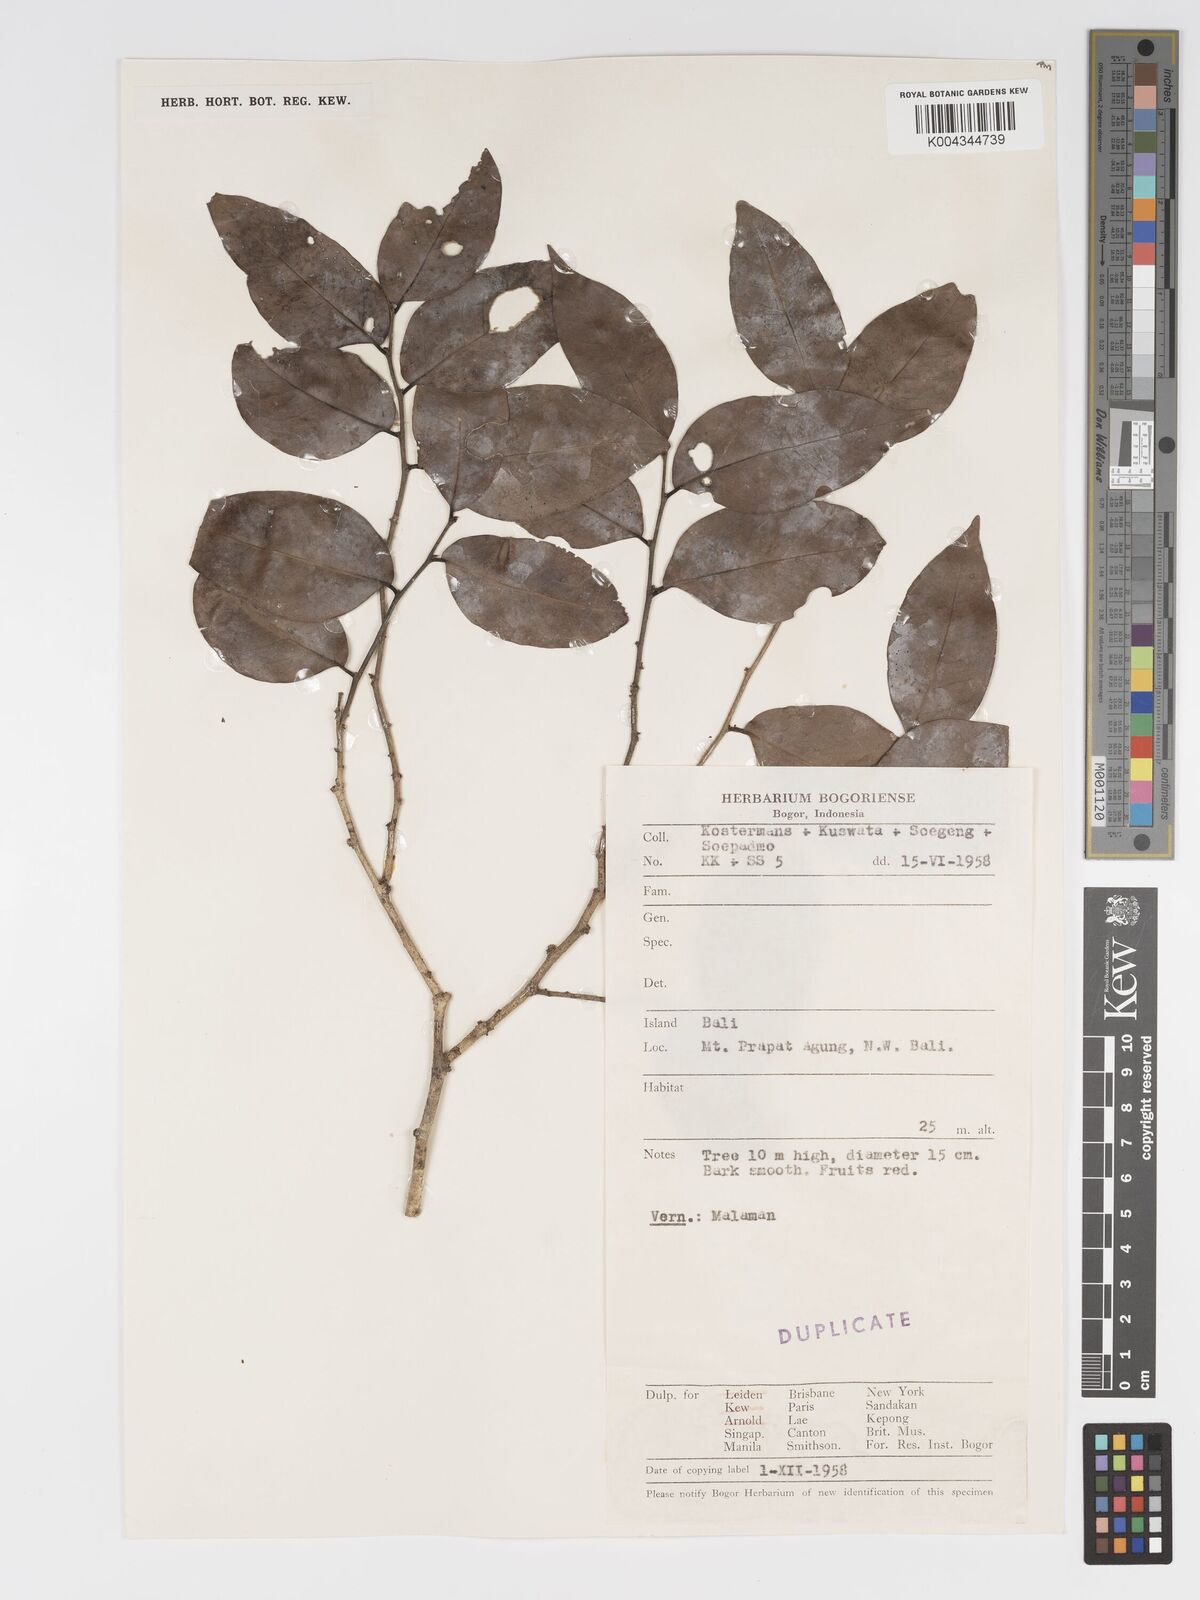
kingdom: Plantae
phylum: Tracheophyta
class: Magnoliopsida
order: Malpighiales
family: Putranjivaceae
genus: Drypetes
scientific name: Drypetes ovalis
